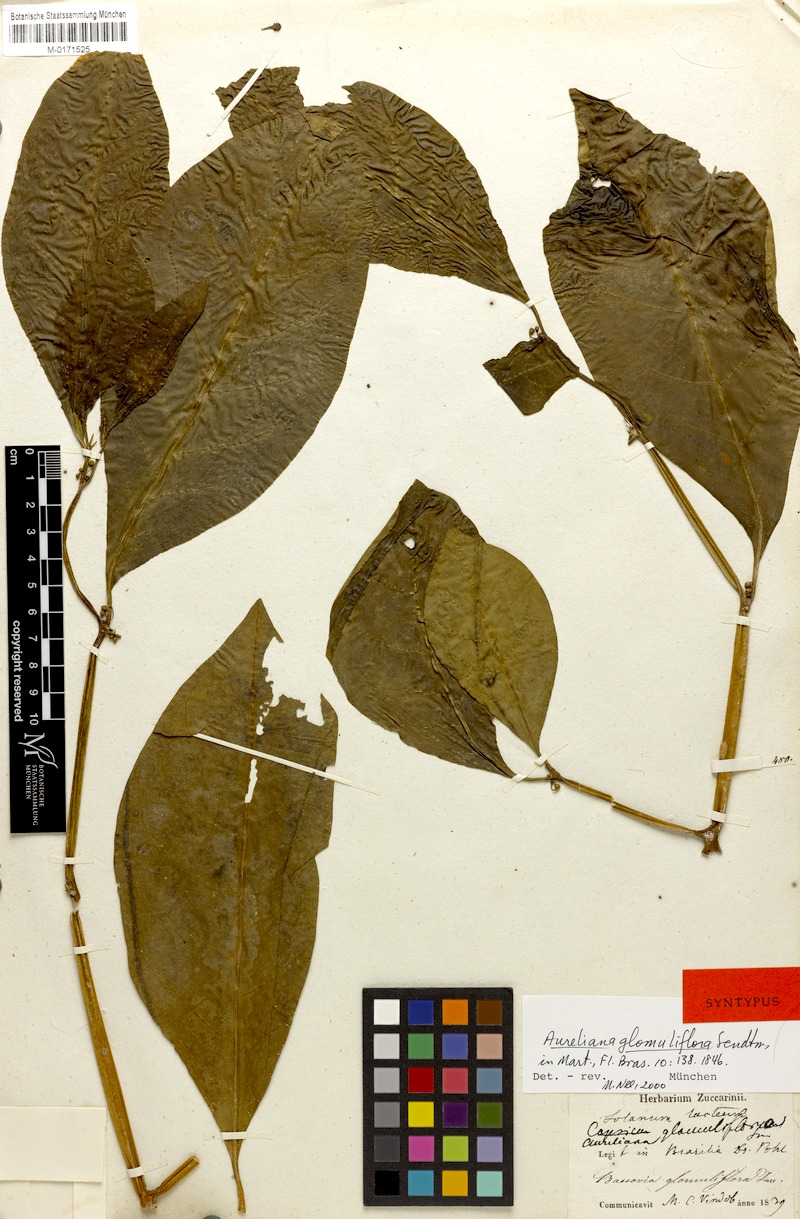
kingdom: Plantae
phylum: Tracheophyta
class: Magnoliopsida
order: Solanales
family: Solanaceae
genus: Athenaea
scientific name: Athenaea fasciculata
